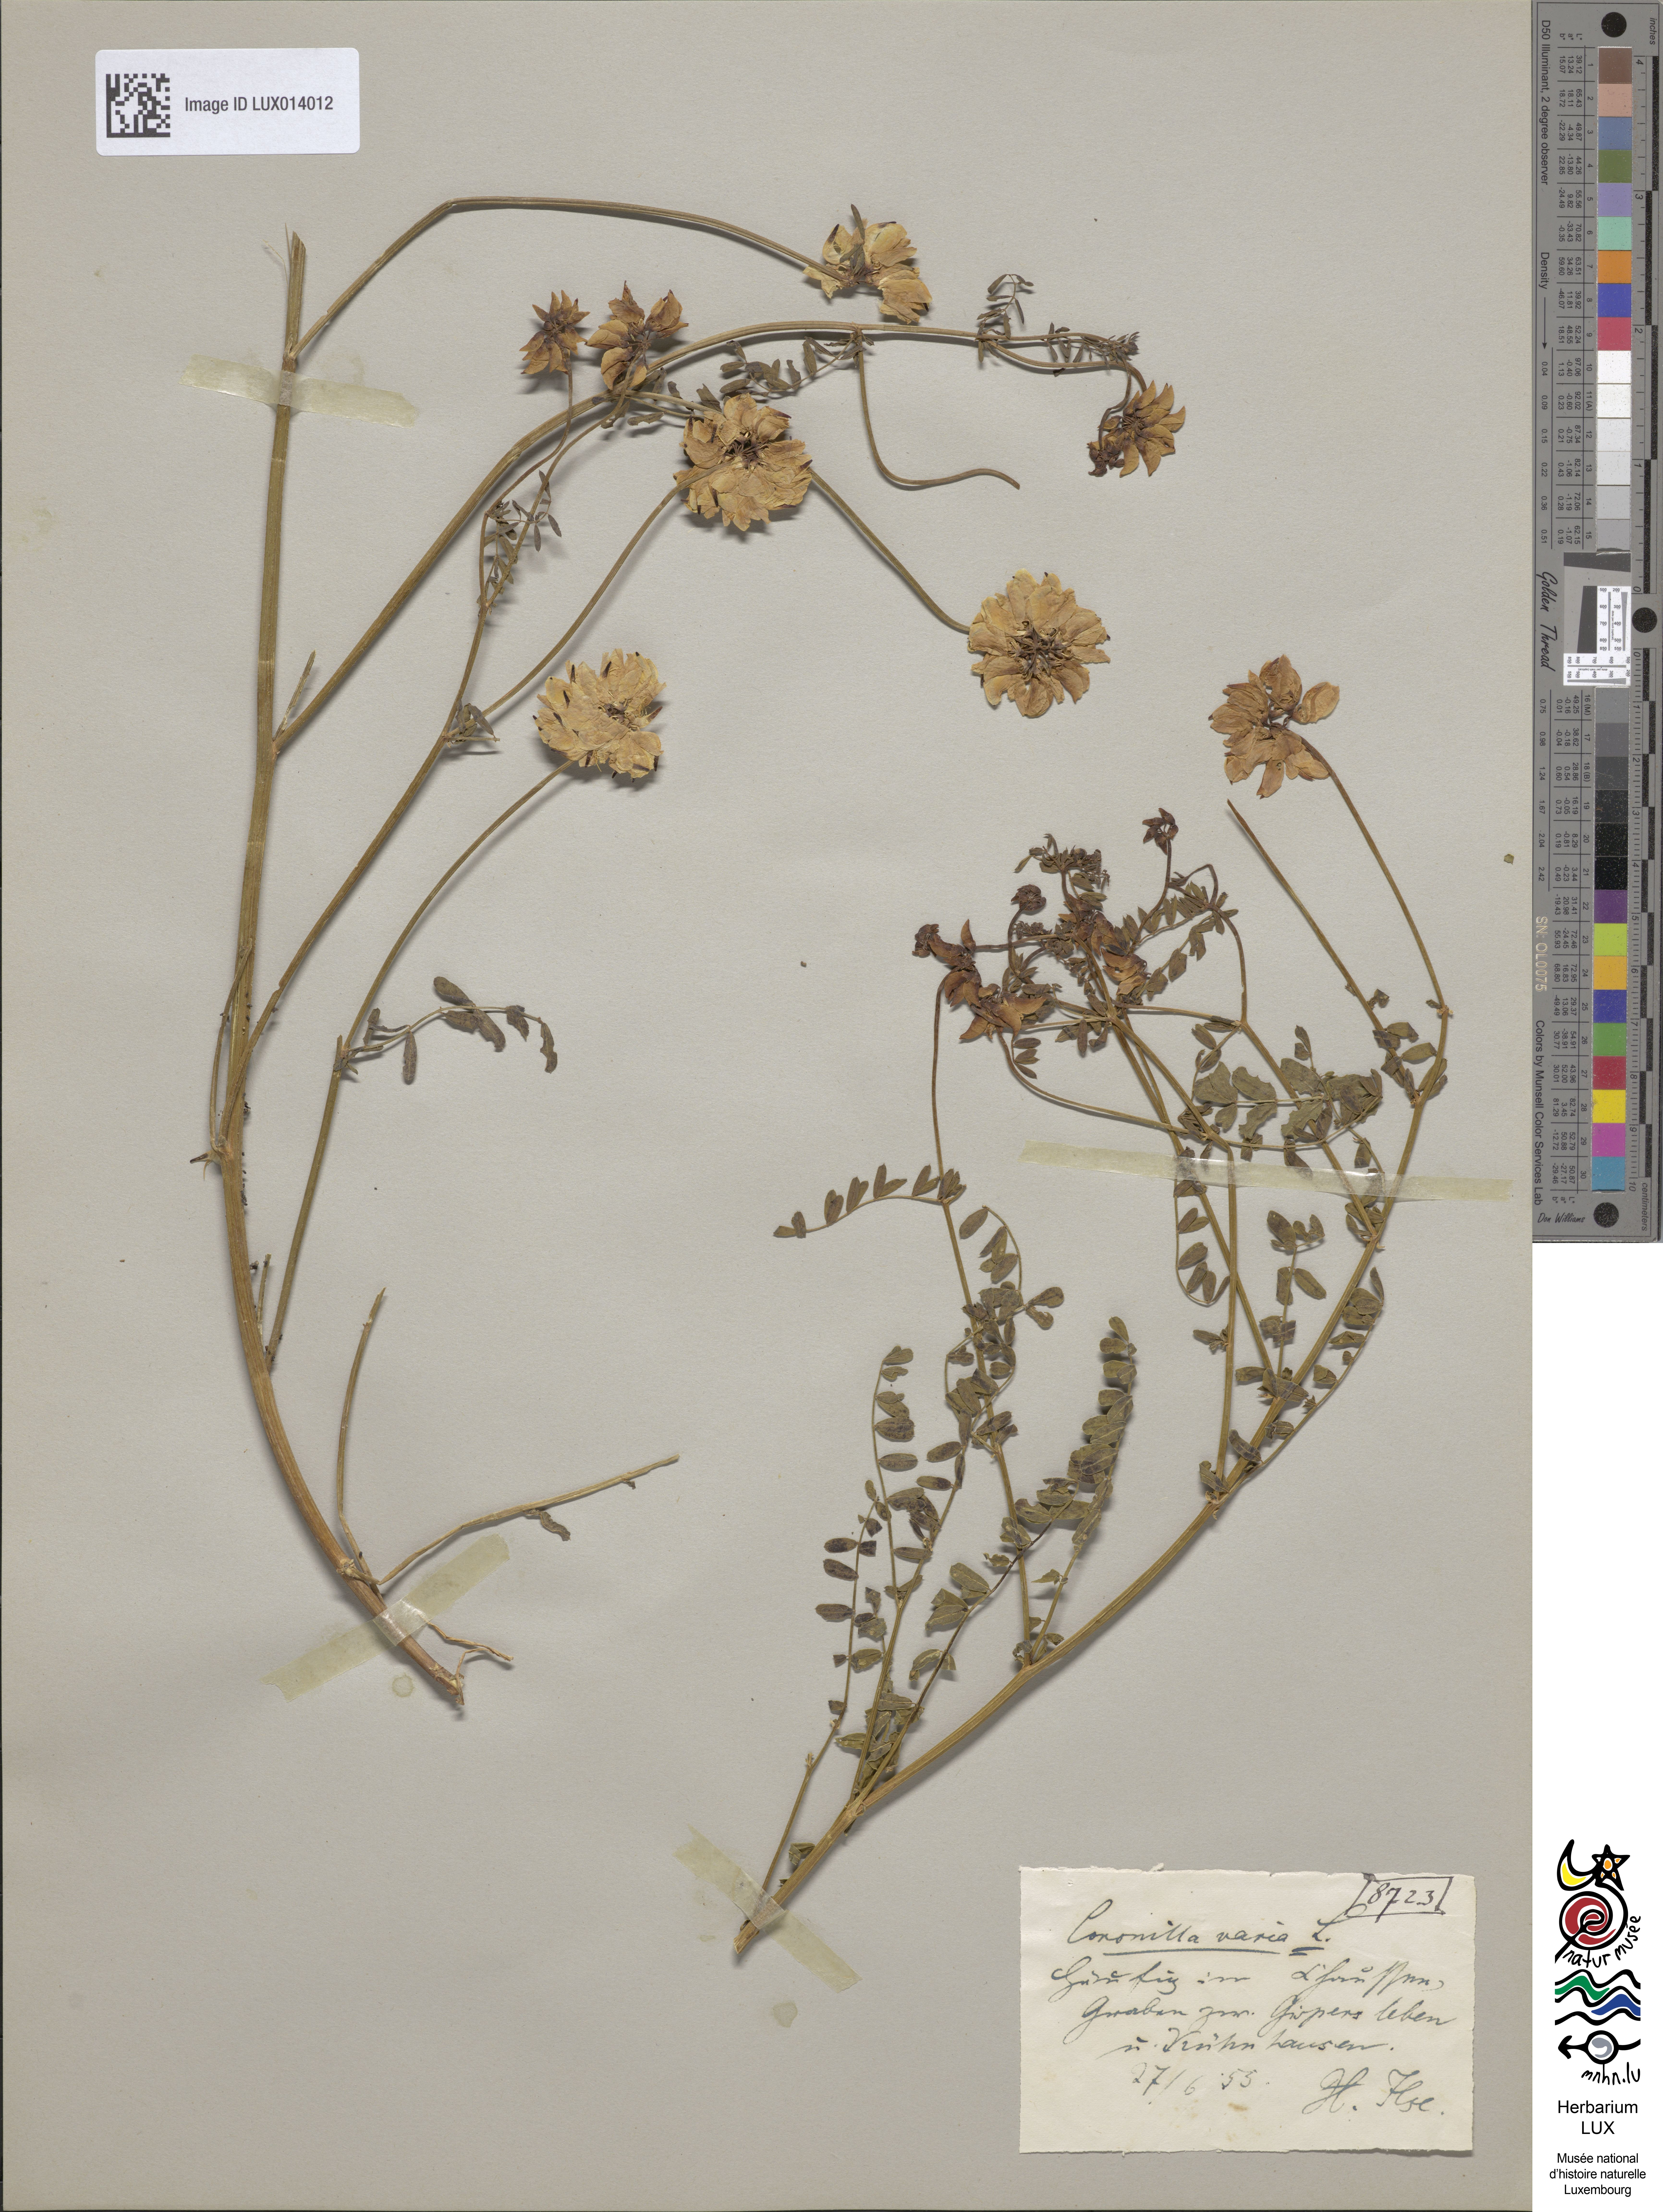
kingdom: Plantae
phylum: Tracheophyta
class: Magnoliopsida
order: Fabales
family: Fabaceae
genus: Coronilla
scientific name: Coronilla varia
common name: Crownvetch
